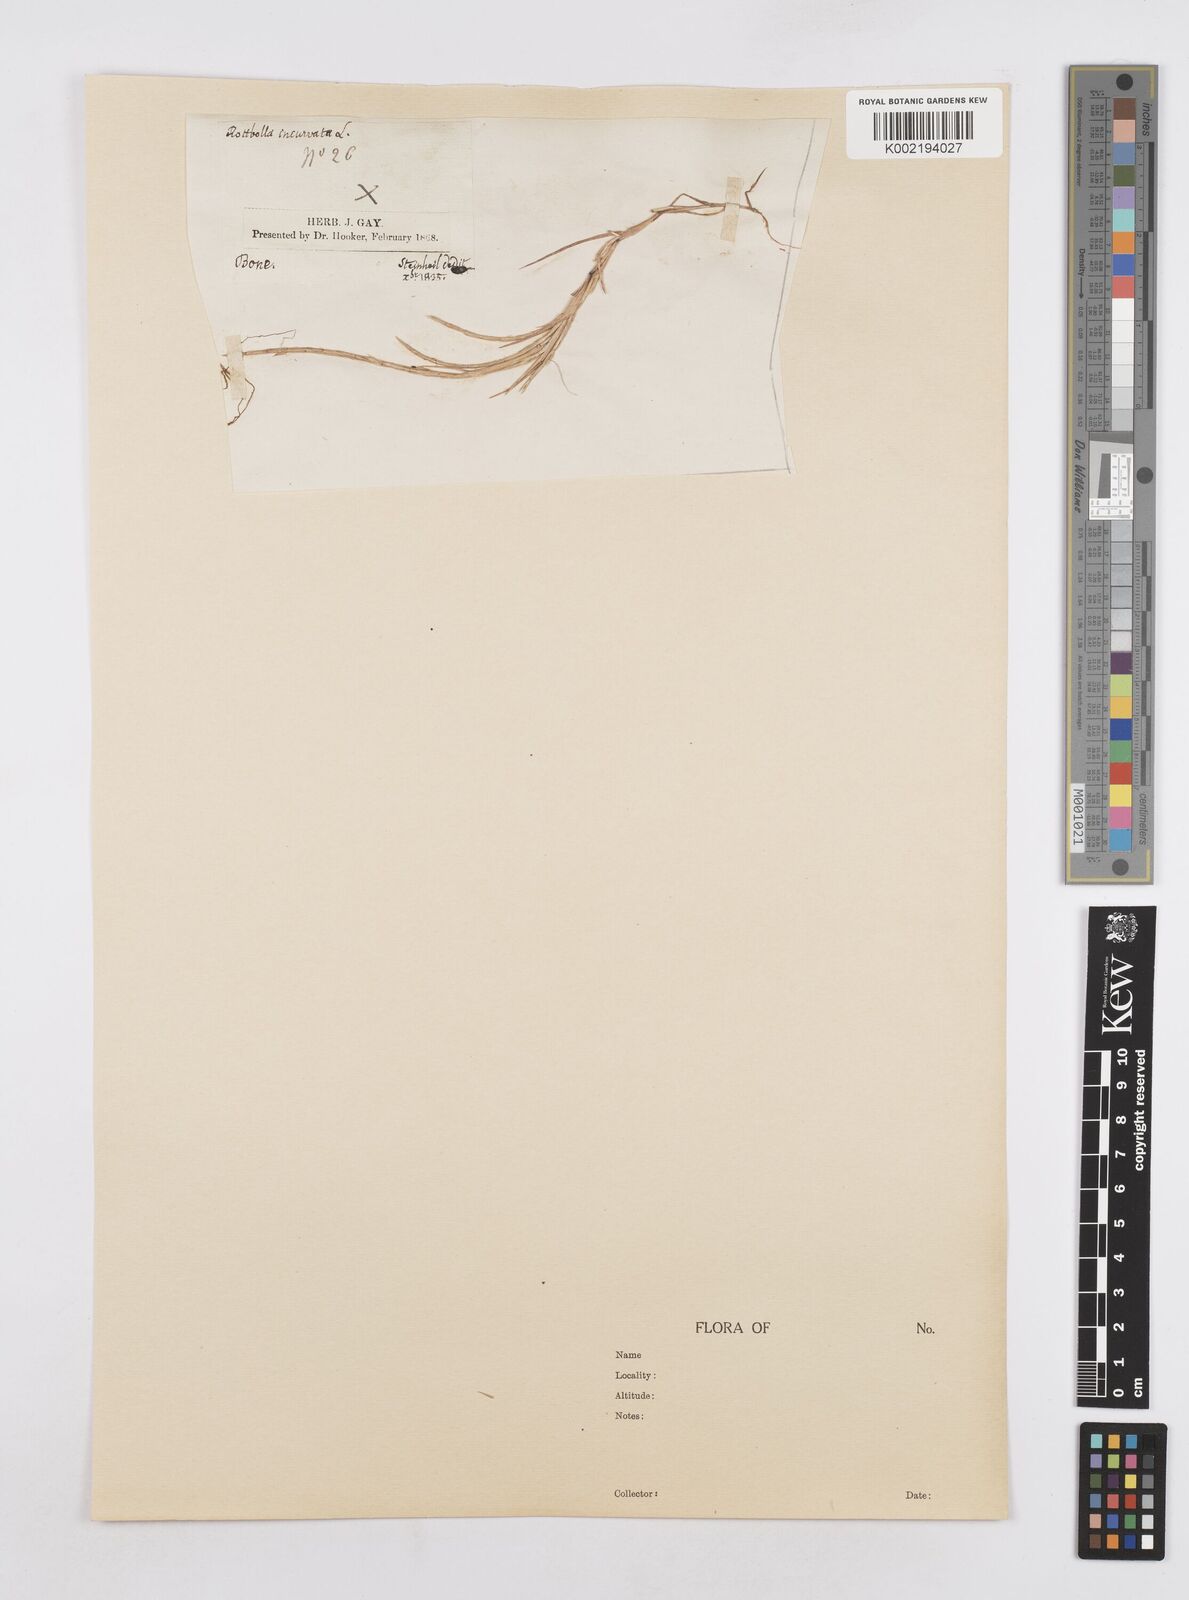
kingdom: Plantae
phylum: Tracheophyta
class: Liliopsida
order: Poales
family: Poaceae
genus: Parapholis
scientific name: Parapholis incurva
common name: Curved sicklegrass
